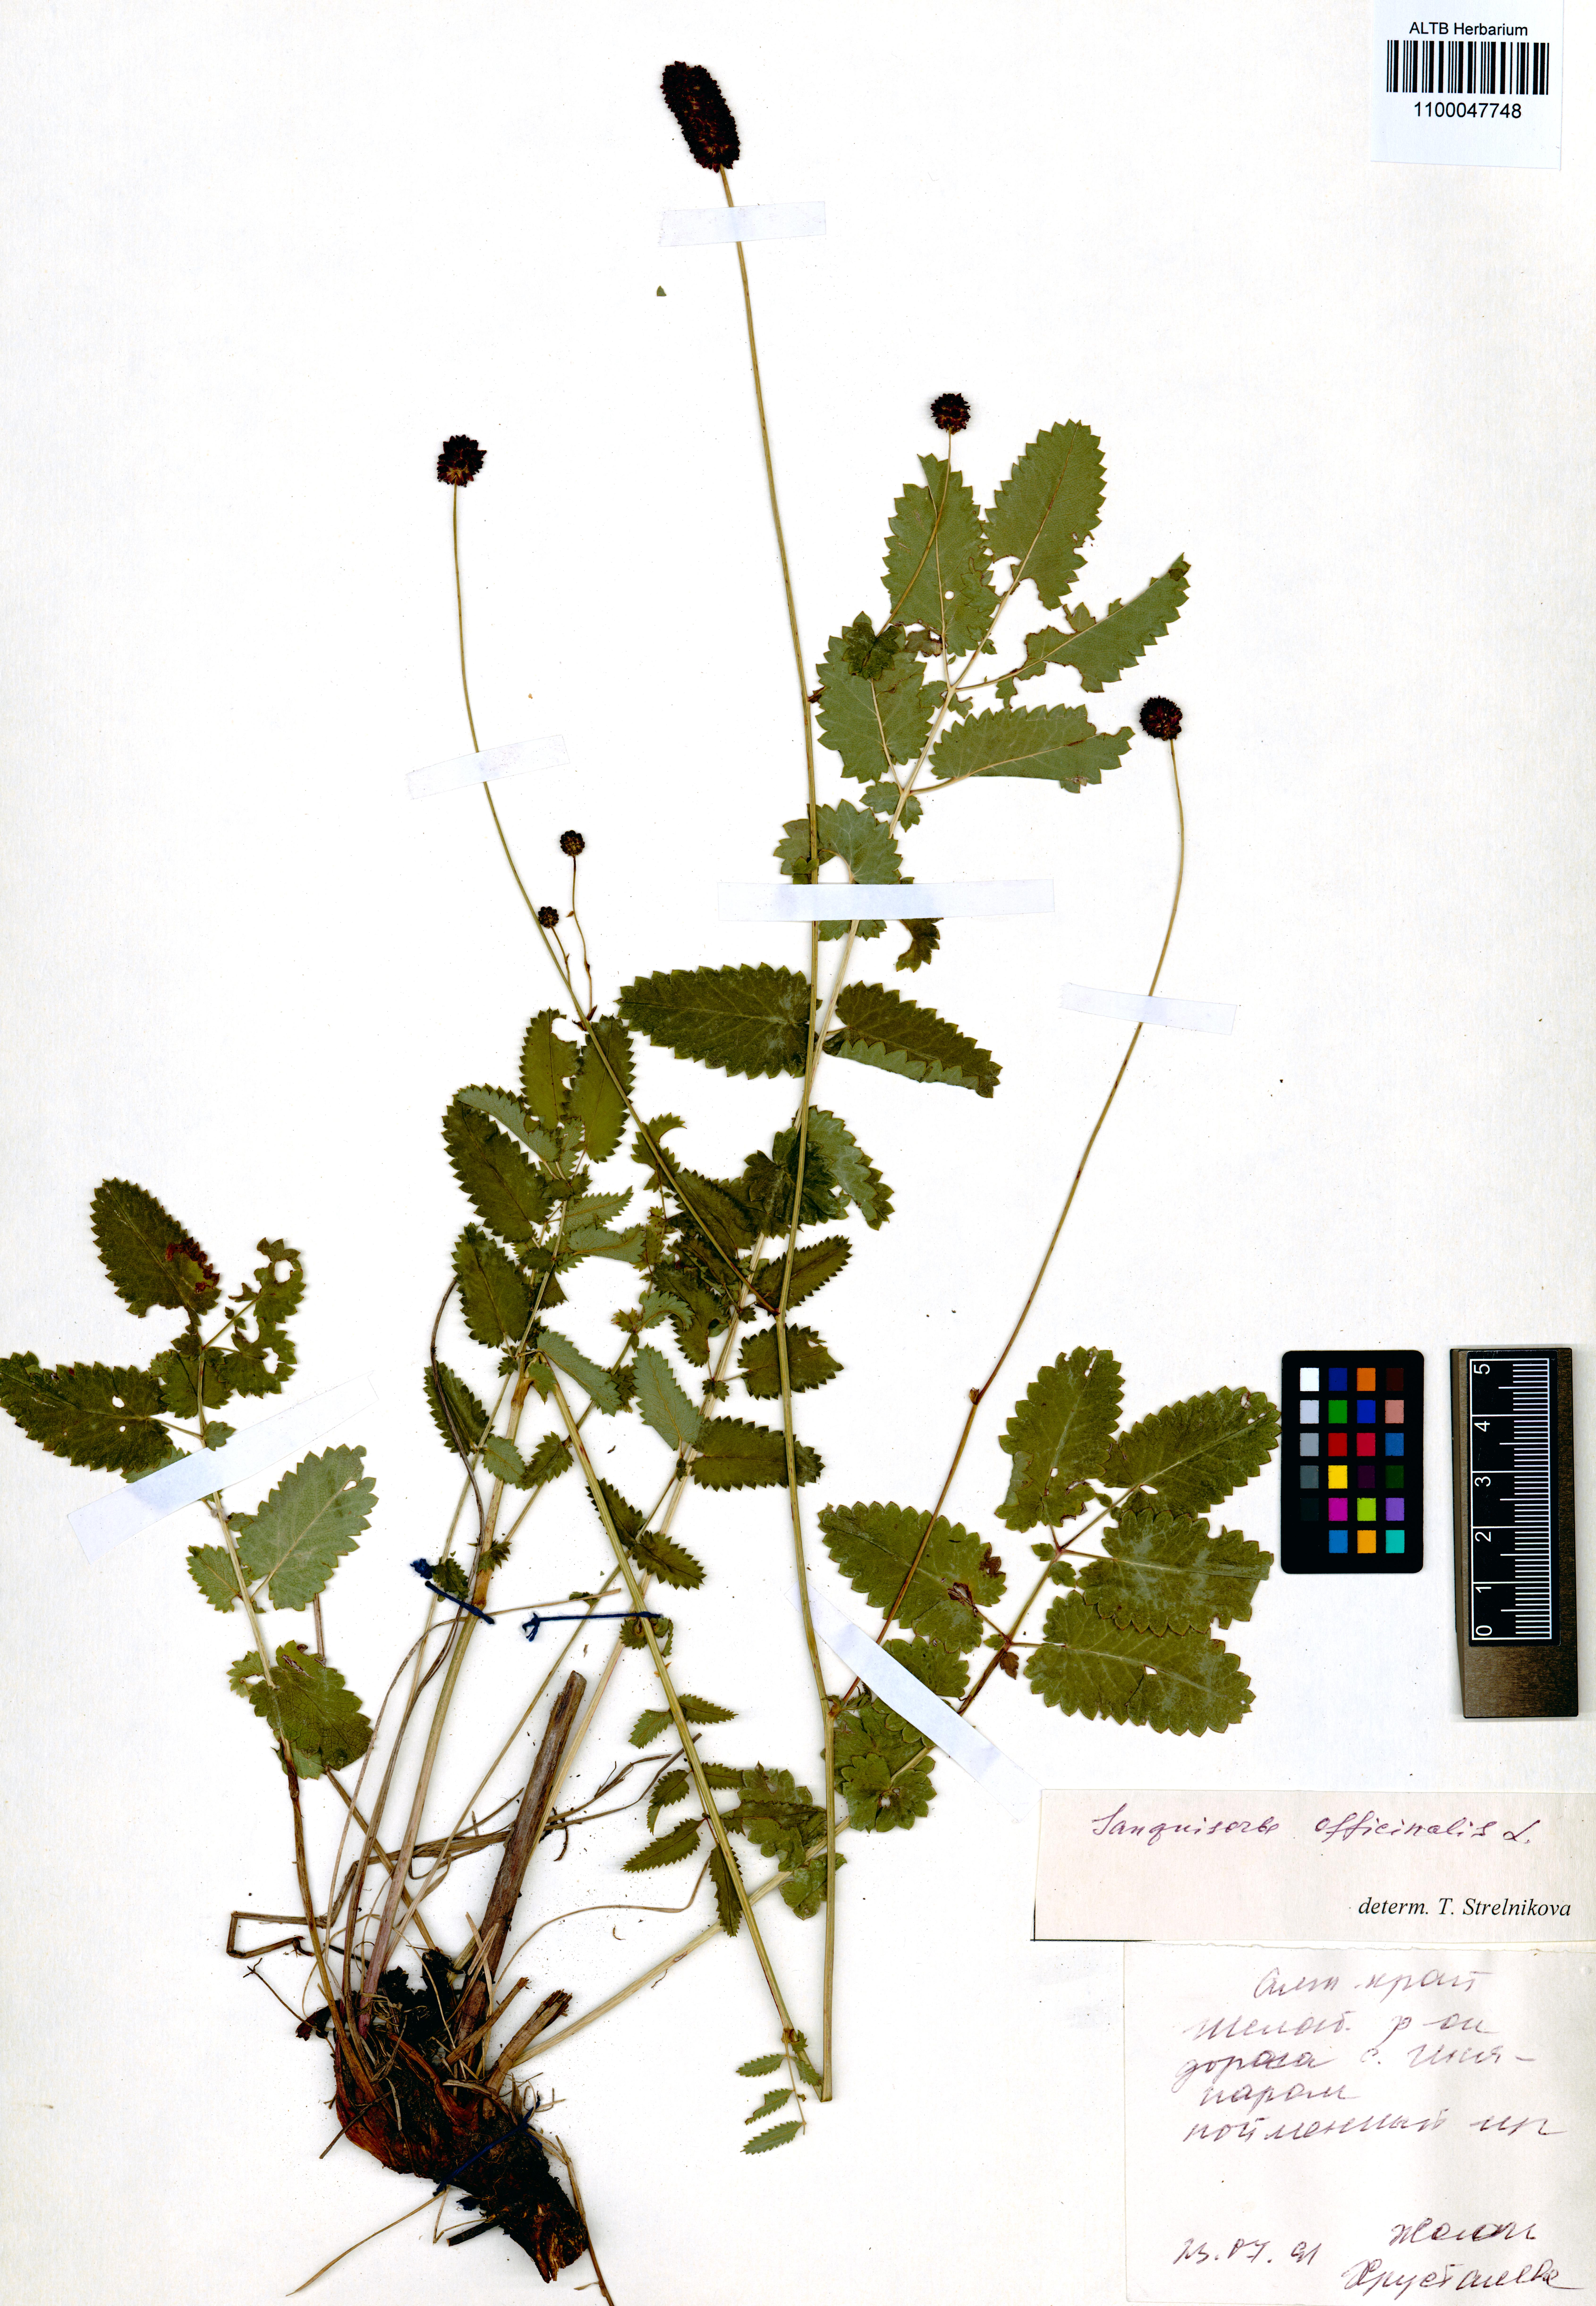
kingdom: Plantae
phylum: Tracheophyta
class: Magnoliopsida
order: Rosales
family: Rosaceae
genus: Sanguisorba
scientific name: Sanguisorba officinalis
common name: Great burnet
